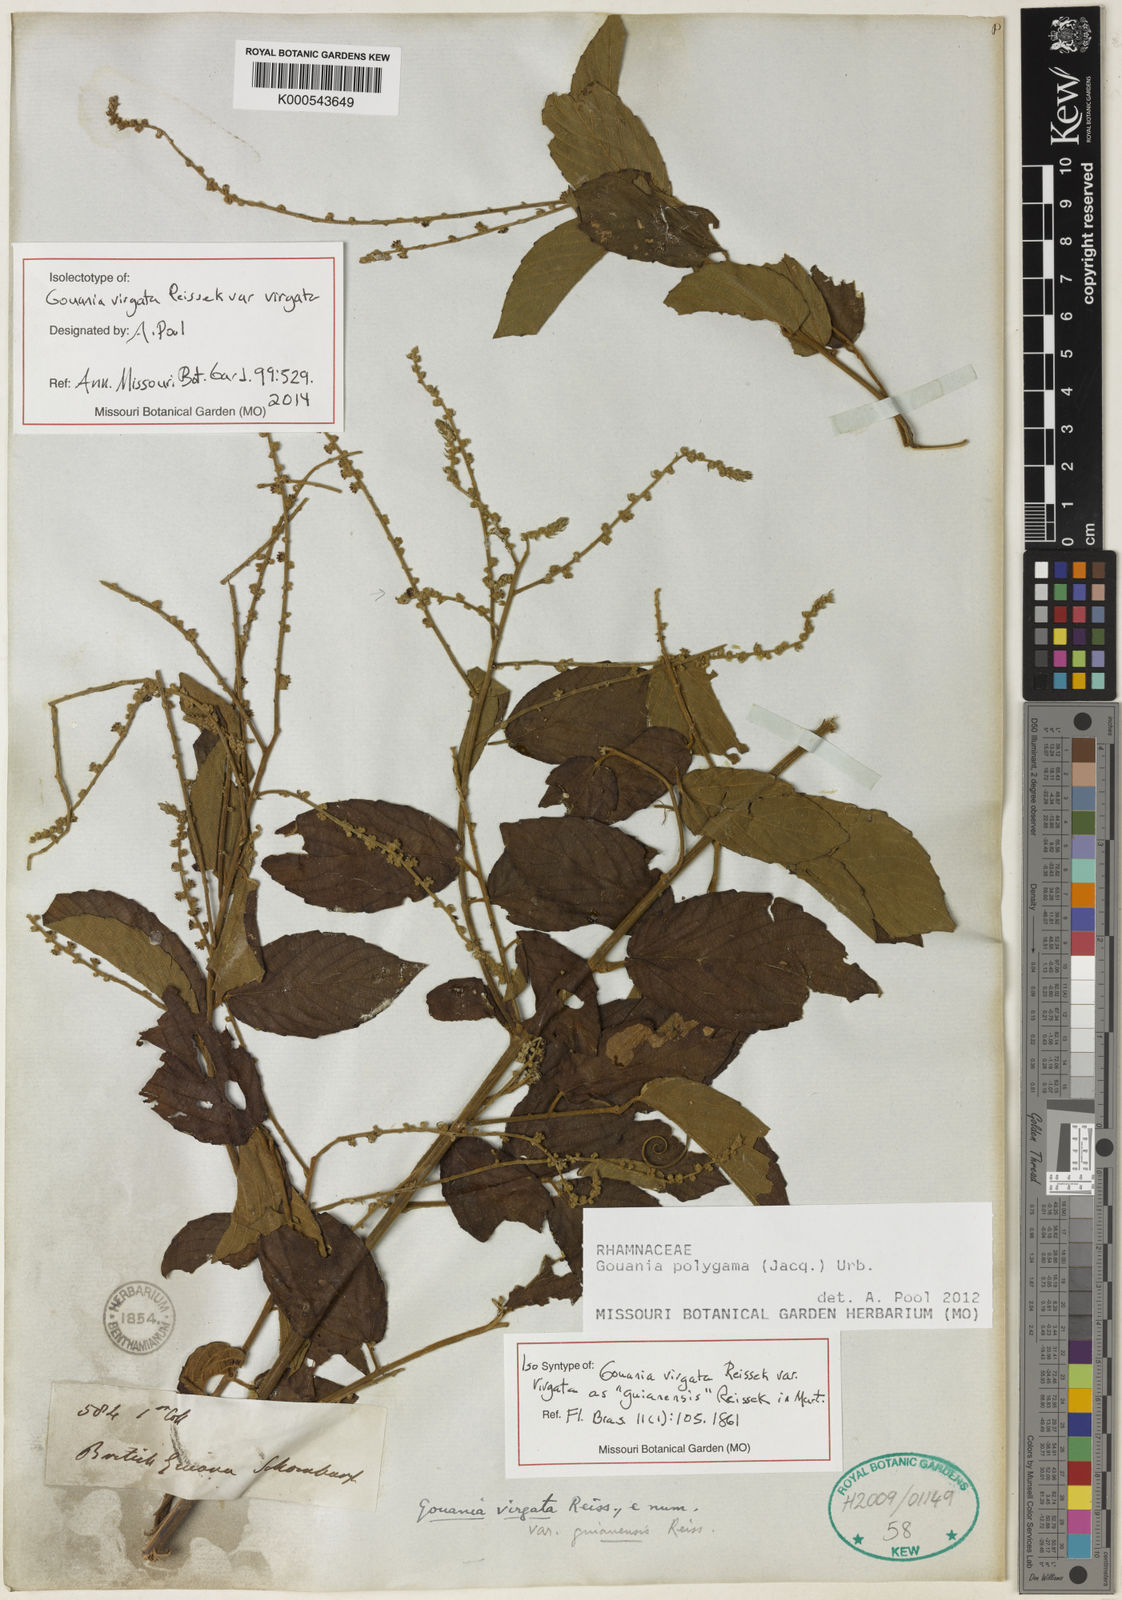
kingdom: Plantae
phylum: Tracheophyta
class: Magnoliopsida
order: Rosales
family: Rhamnaceae
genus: Gouania
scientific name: Gouania polygama
